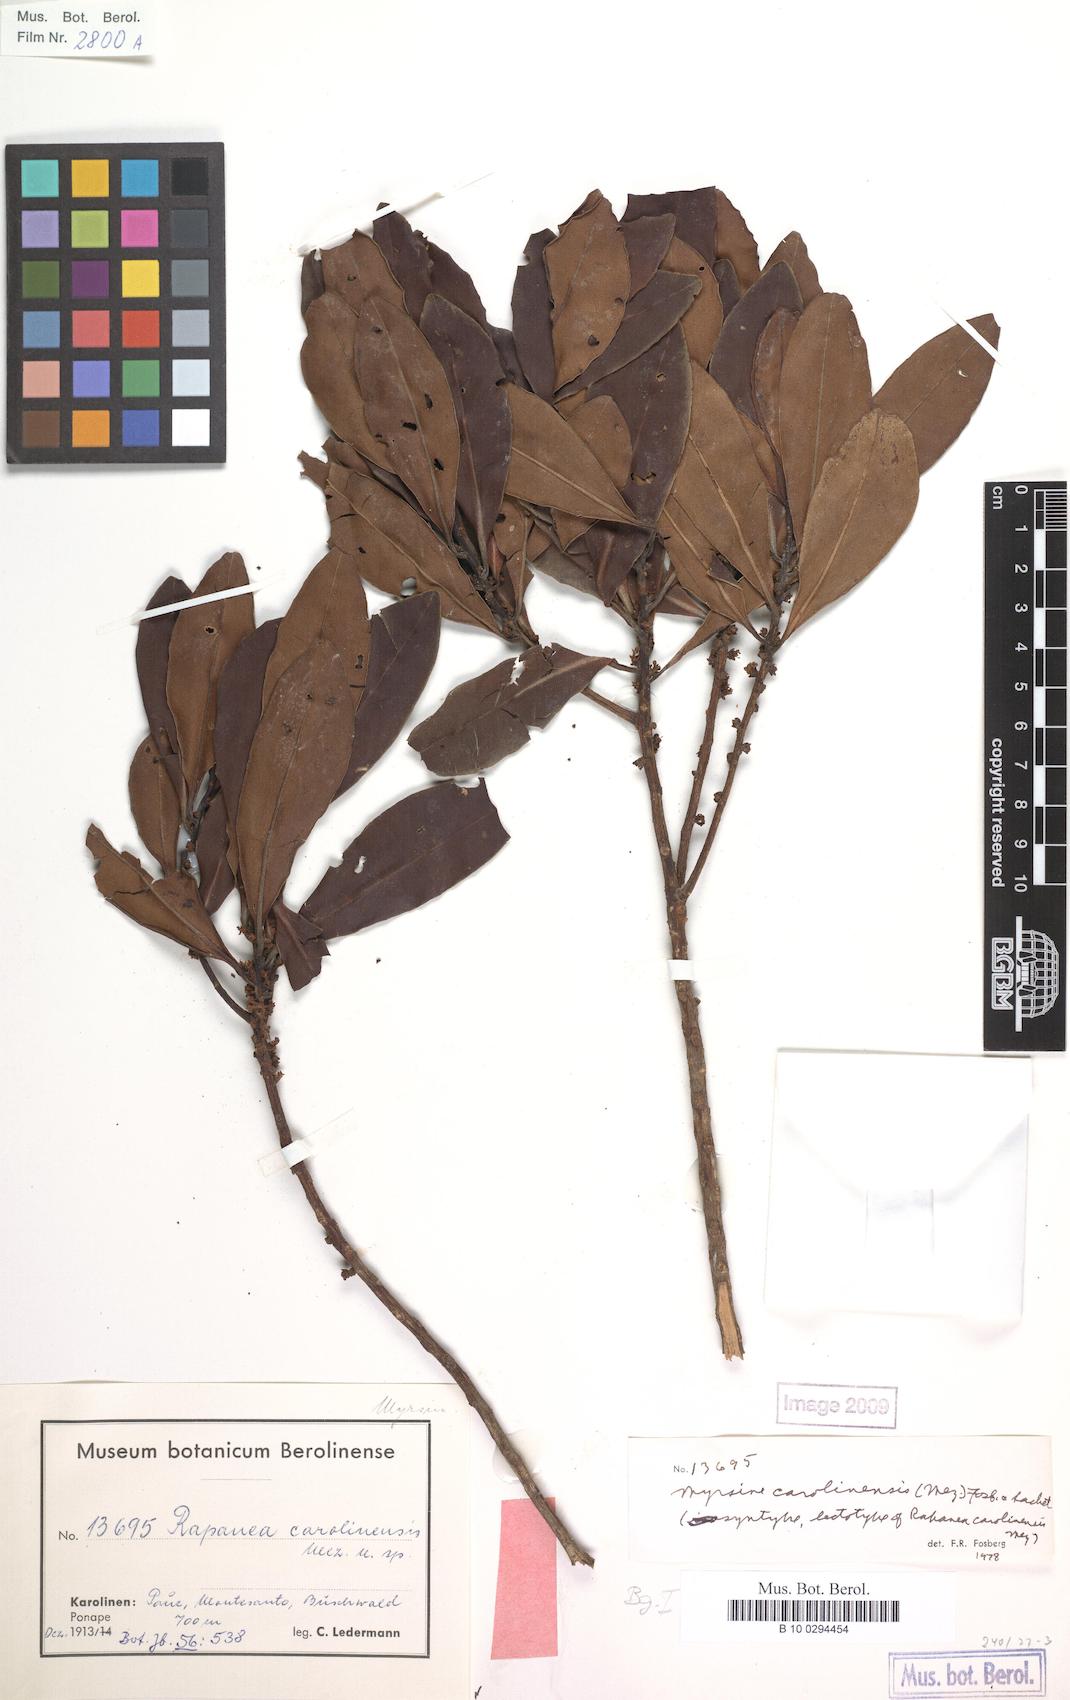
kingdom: Plantae
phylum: Tracheophyta
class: Magnoliopsida
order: Ericales
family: Primulaceae
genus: Myrsine
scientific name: Myrsine carolinensis
